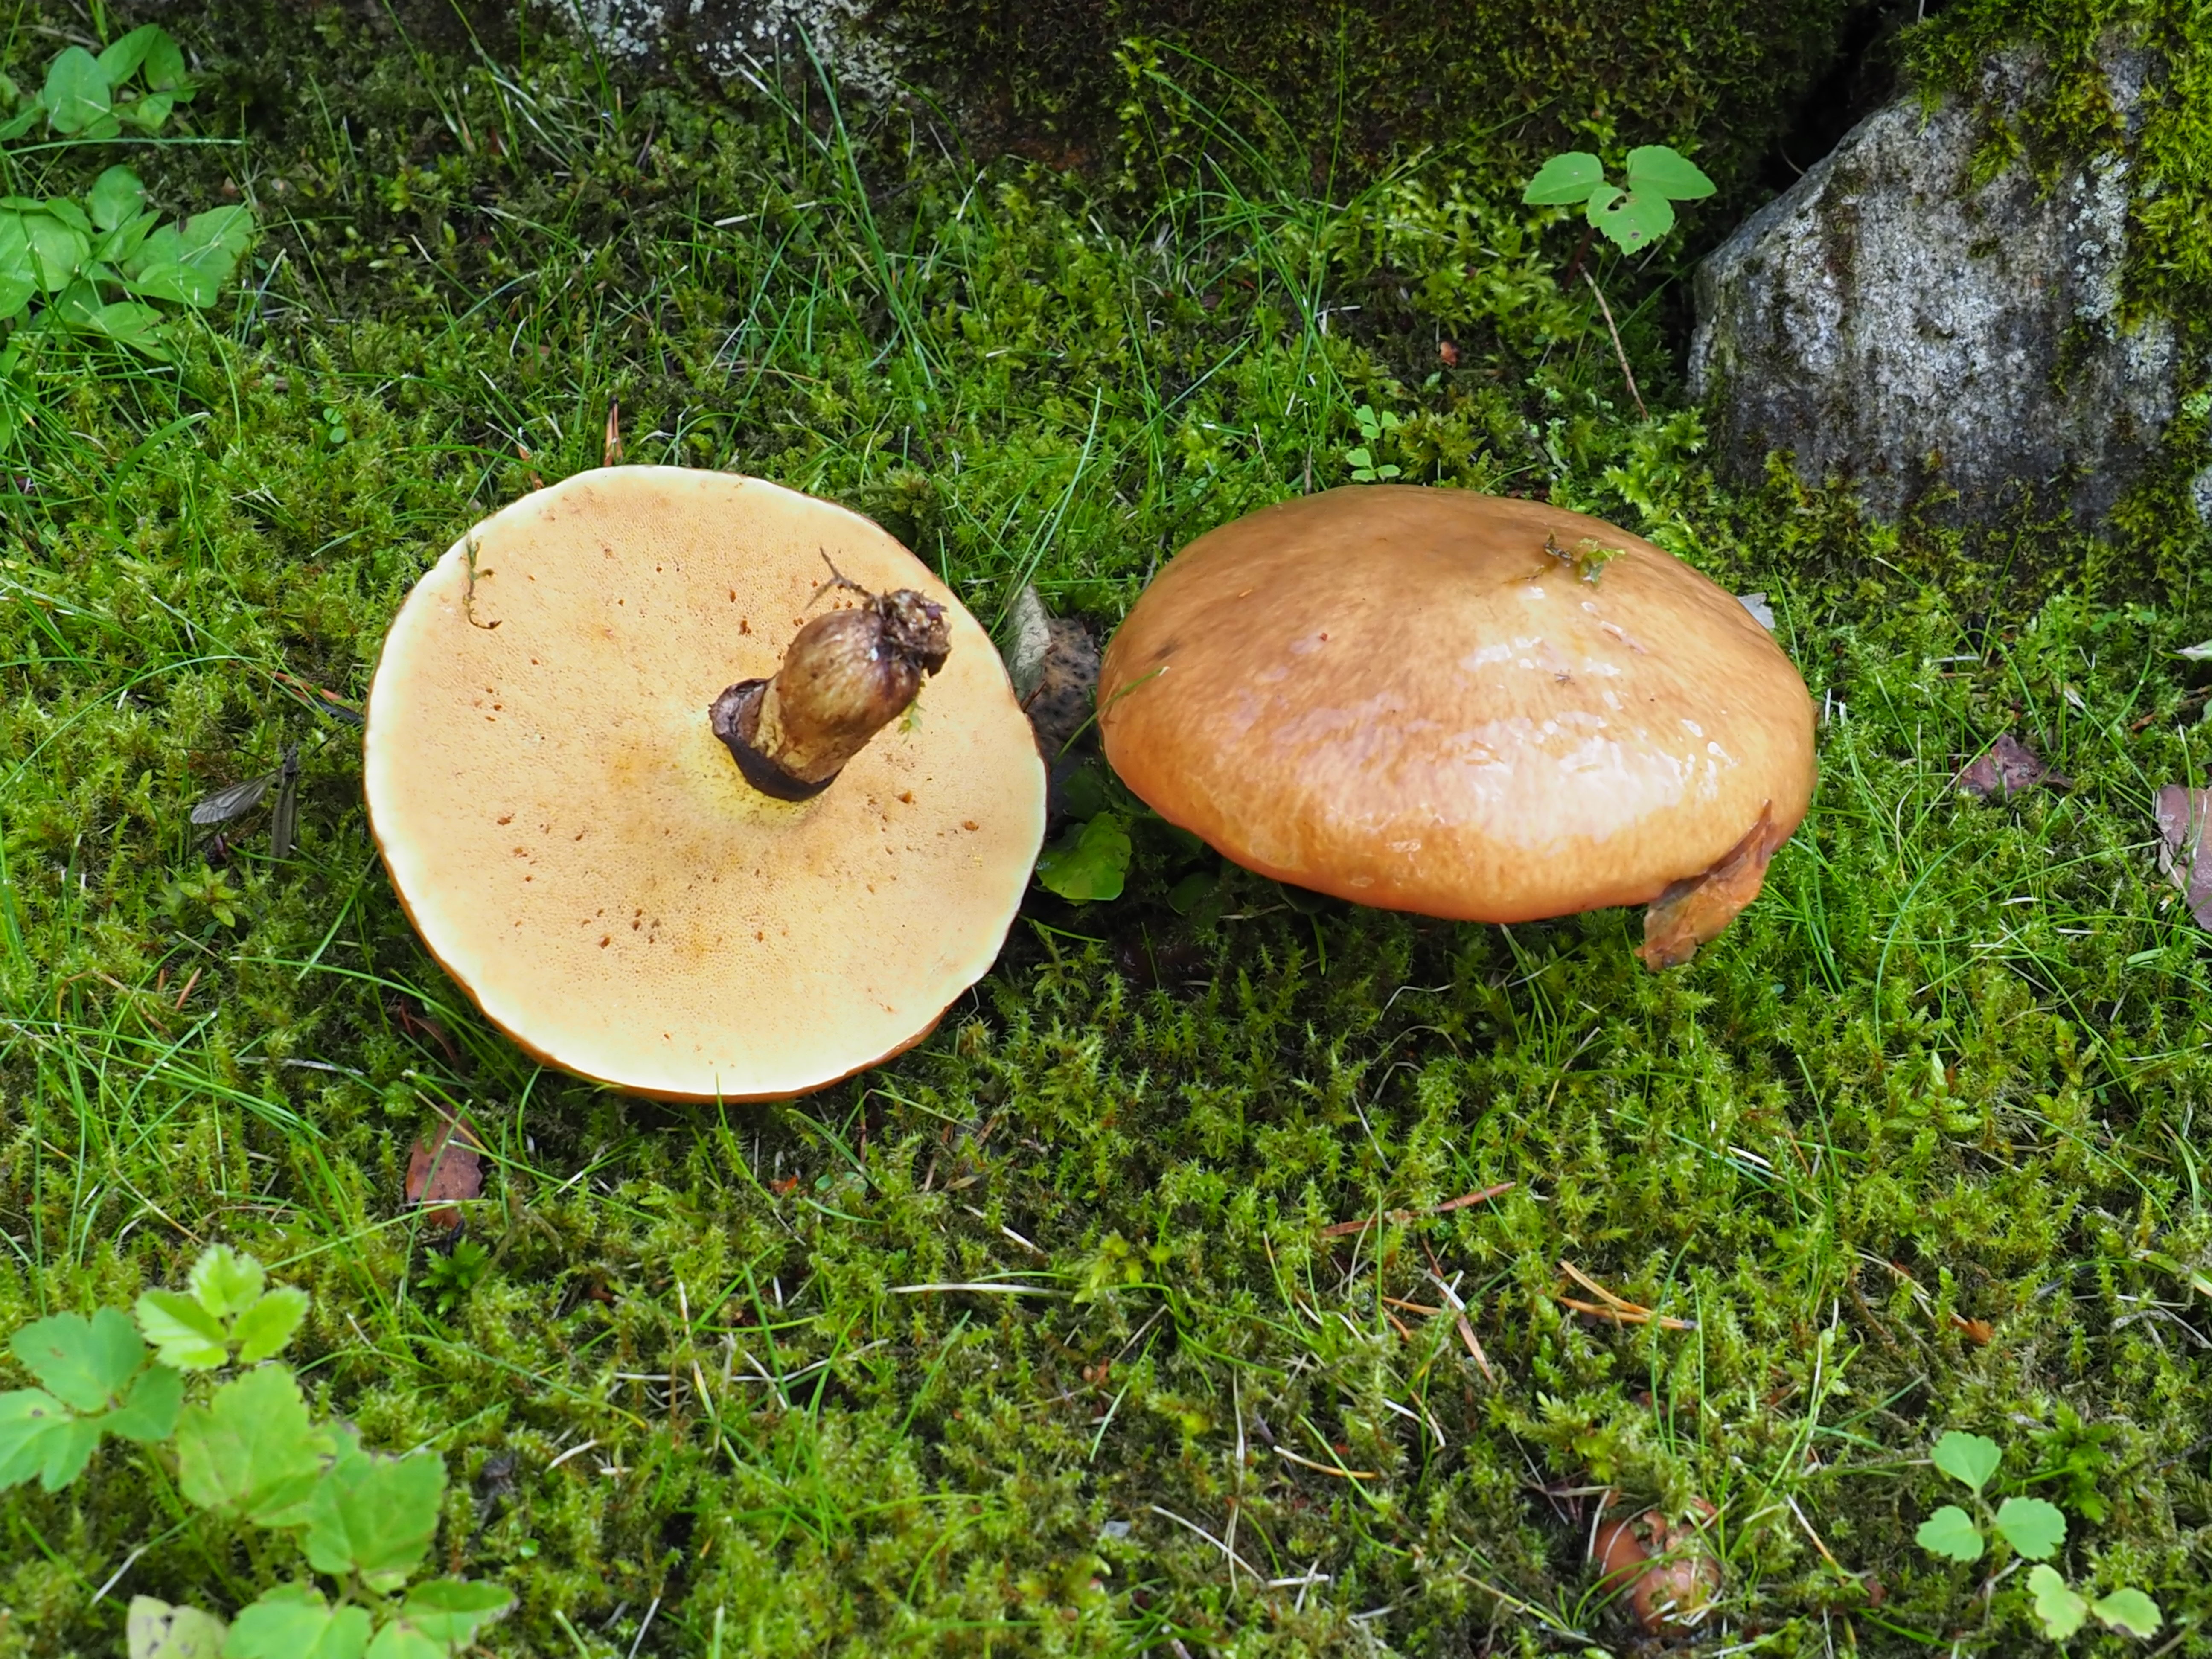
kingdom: Fungi
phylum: Basidiomycota
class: Agaricomycetes
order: Boletales
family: Suillaceae
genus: Suillus
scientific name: Suillus luteus
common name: Slippery jack
